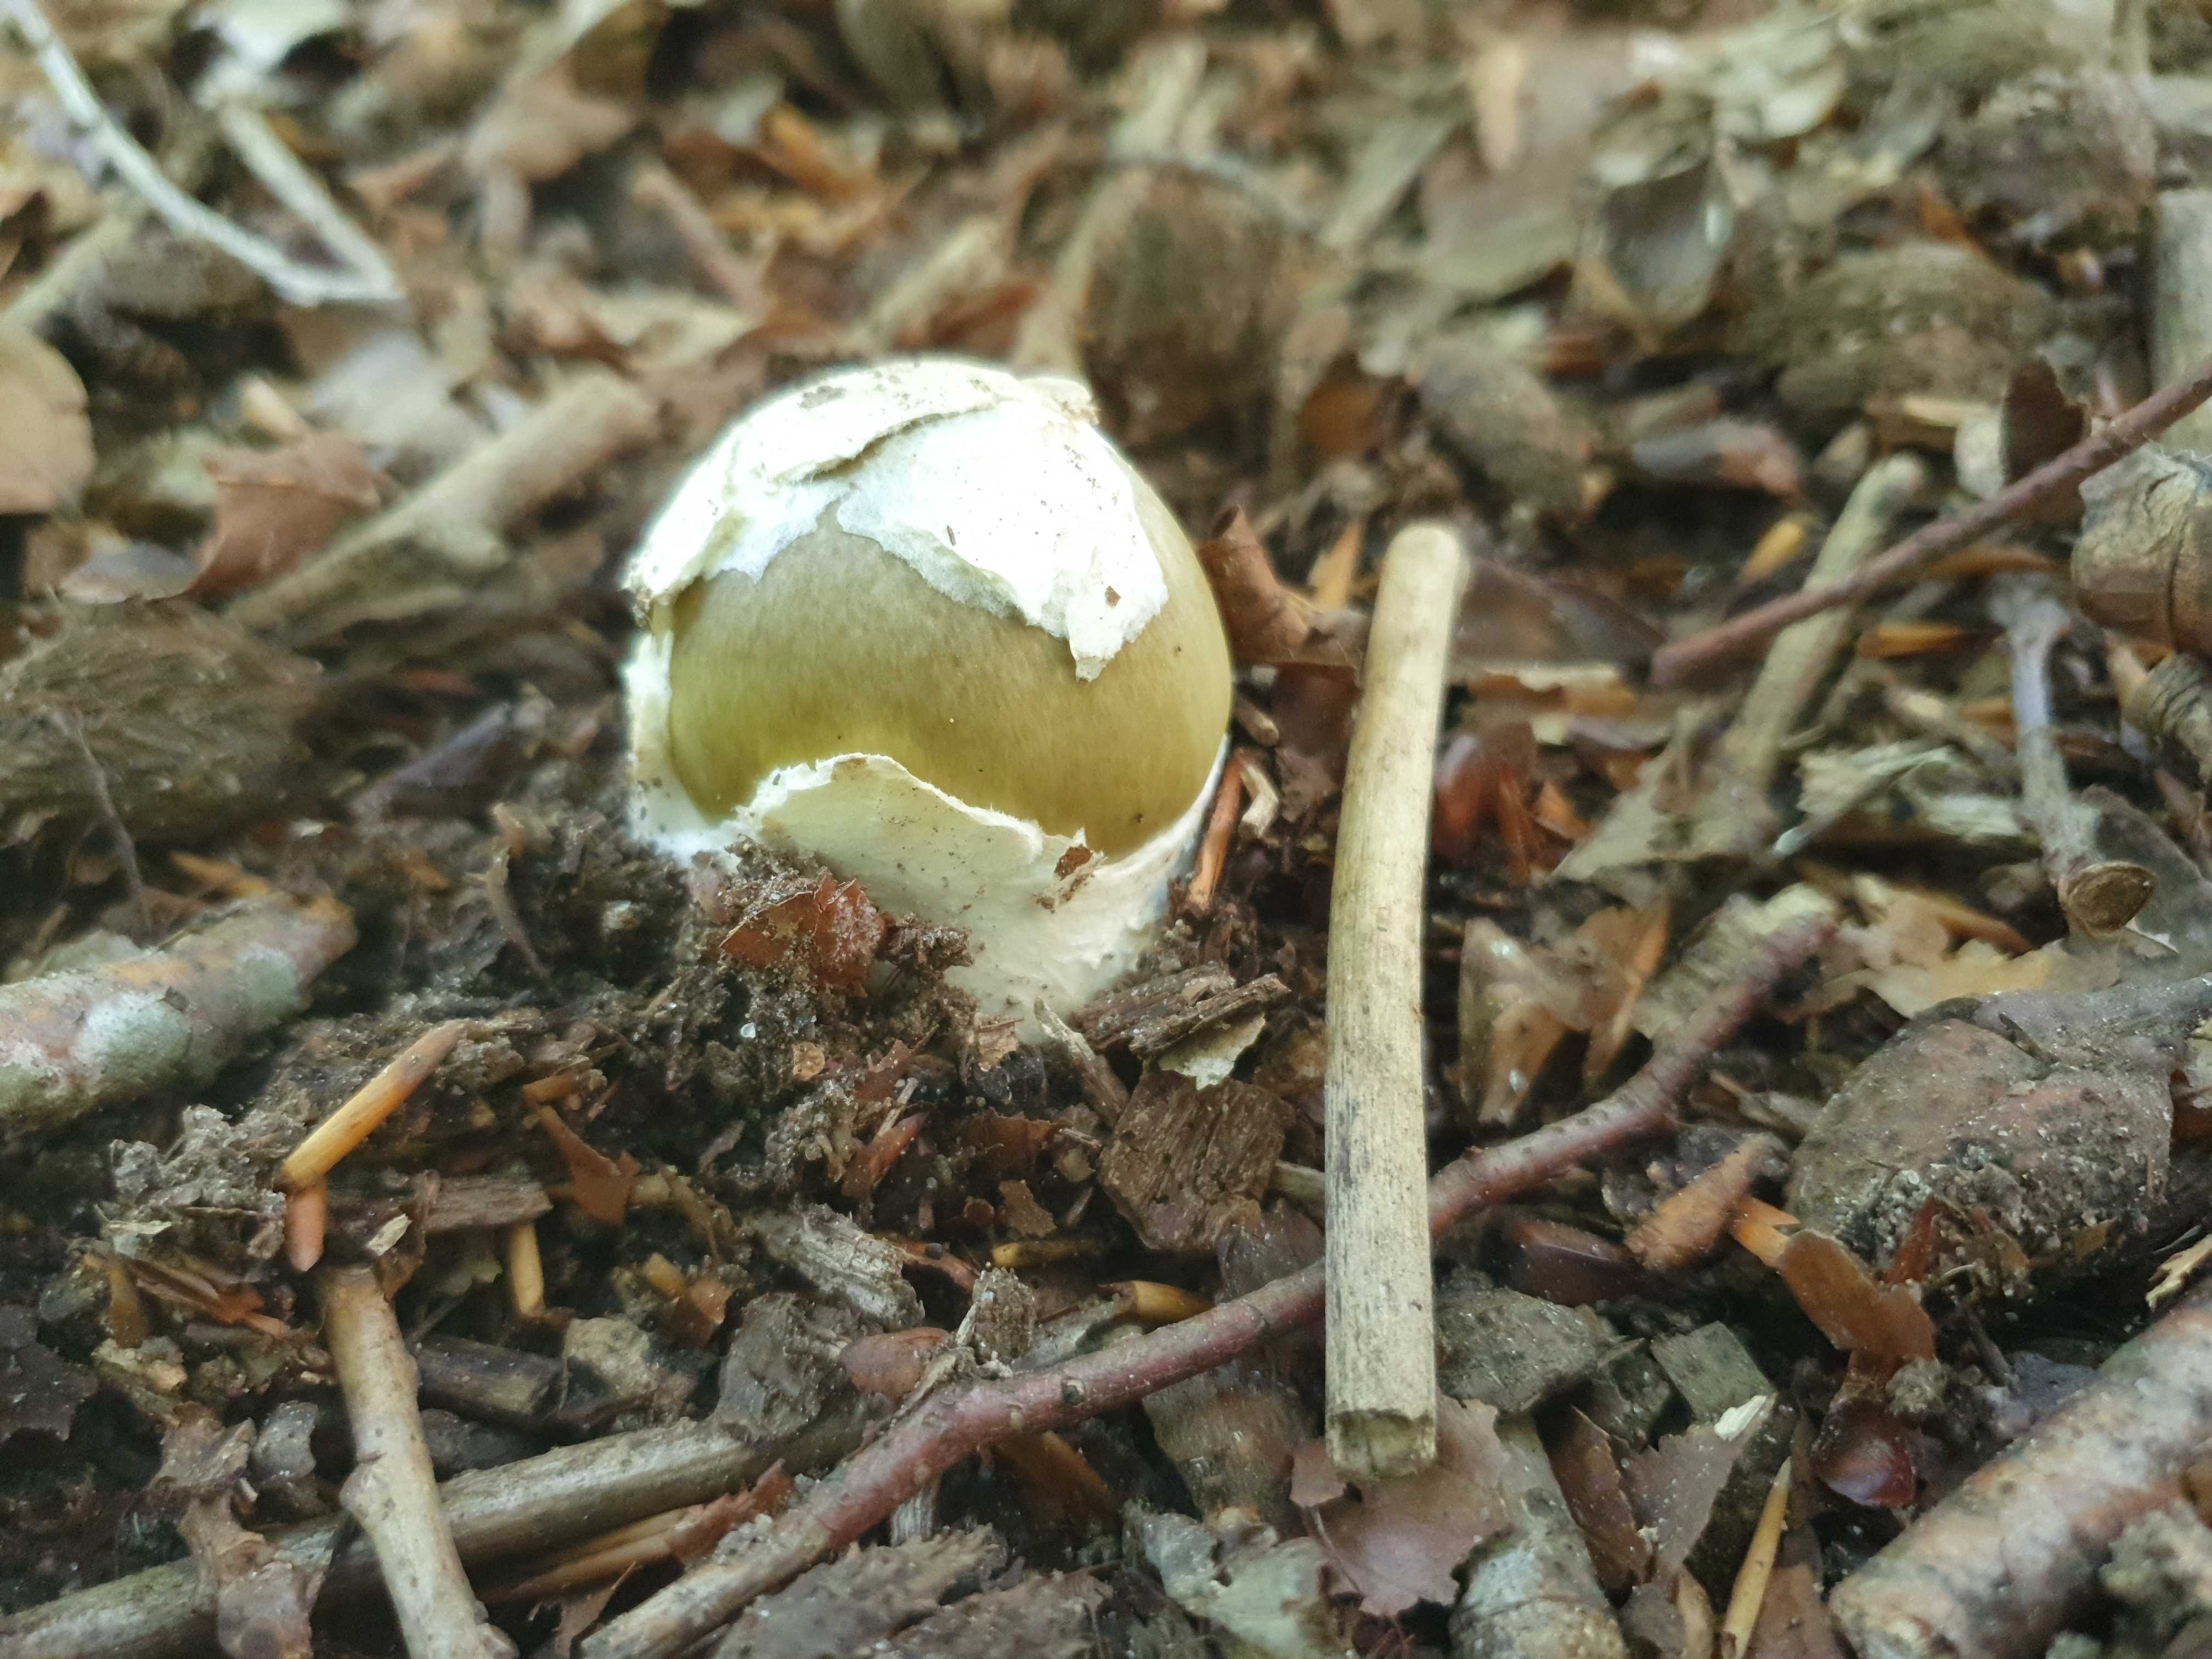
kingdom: Fungi
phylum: Basidiomycota
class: Agaricomycetes
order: Agaricales
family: Amanitaceae
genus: Amanita
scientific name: Amanita phalloides
